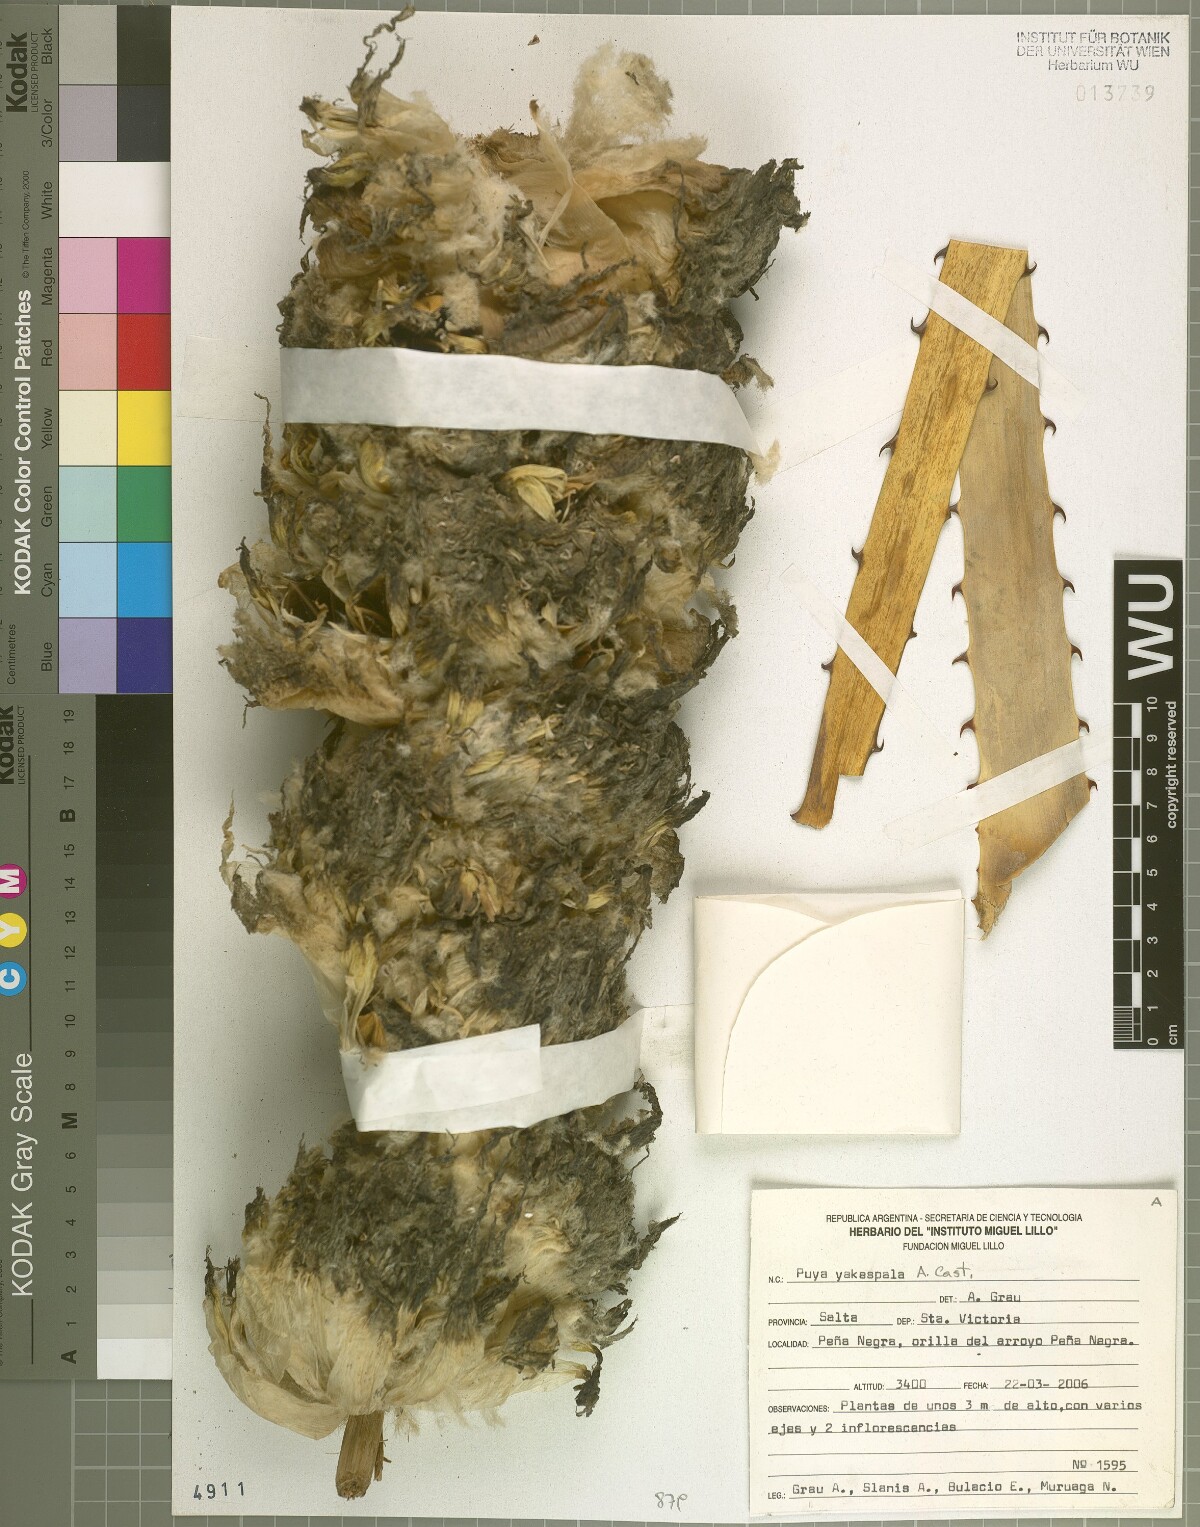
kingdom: Plantae
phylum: Tracheophyta
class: Liliopsida
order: Poales
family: Bromeliaceae
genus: Puya
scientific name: Puya yakespala
